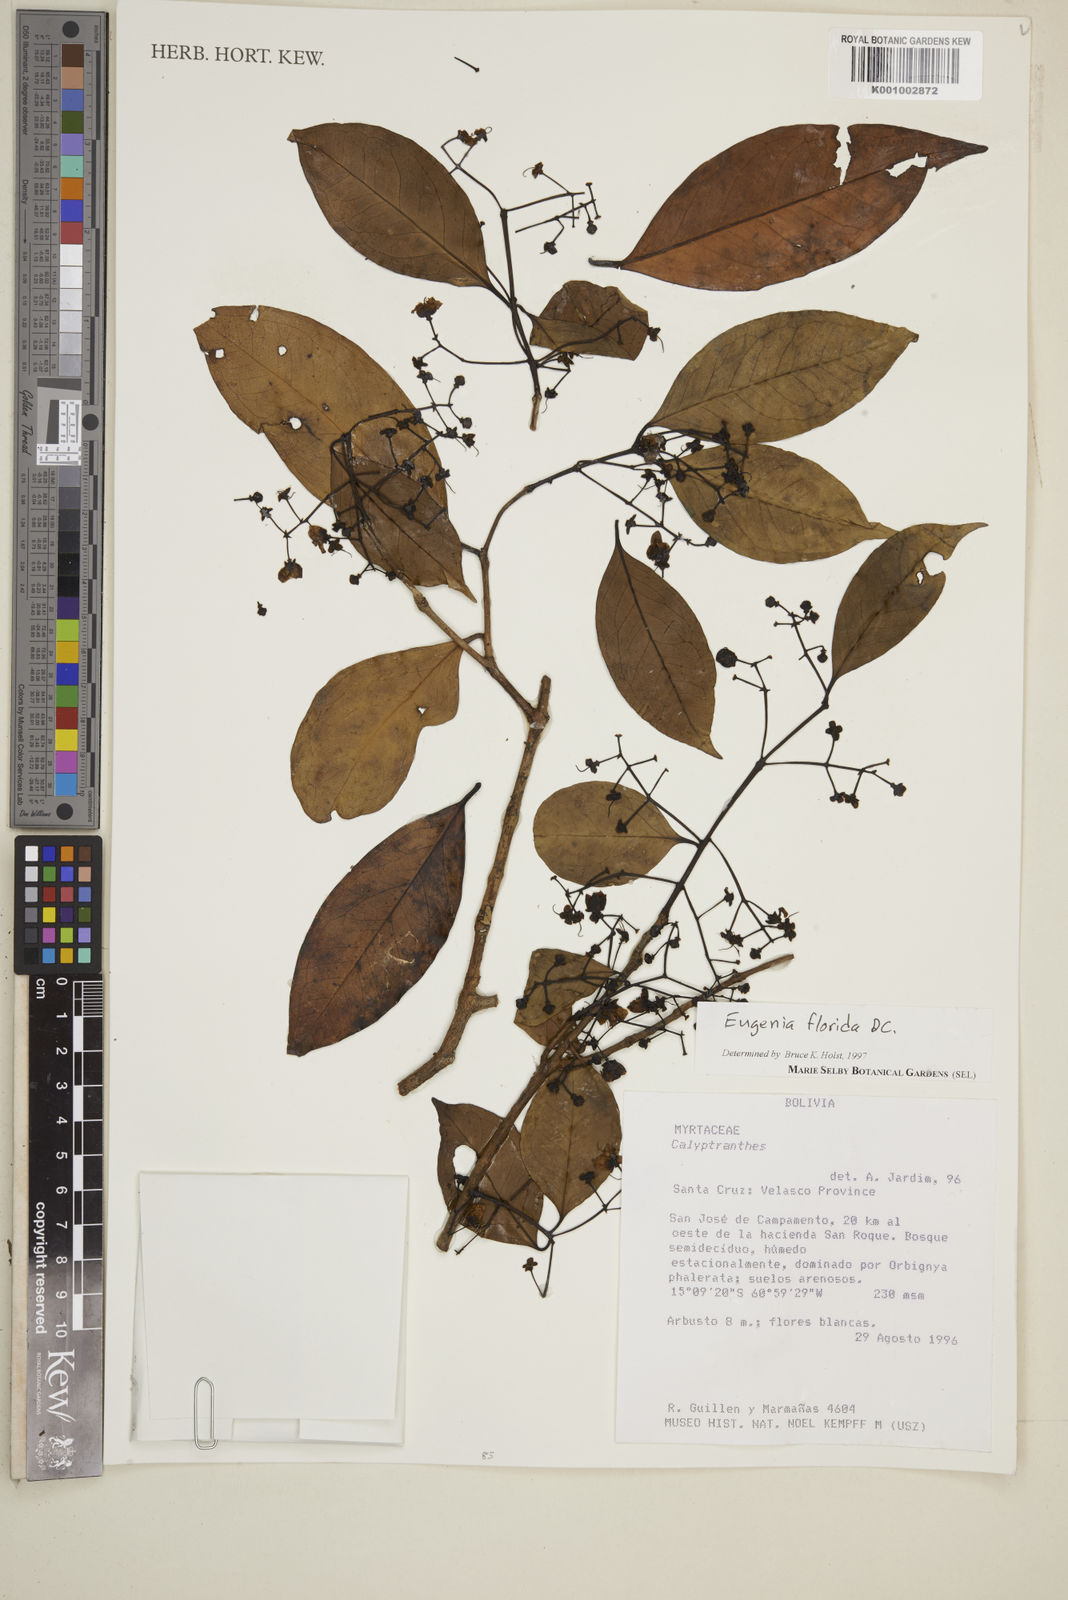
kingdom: Plantae
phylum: Tracheophyta
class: Magnoliopsida
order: Myrtales
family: Myrtaceae
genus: Eugenia
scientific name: Eugenia florida
